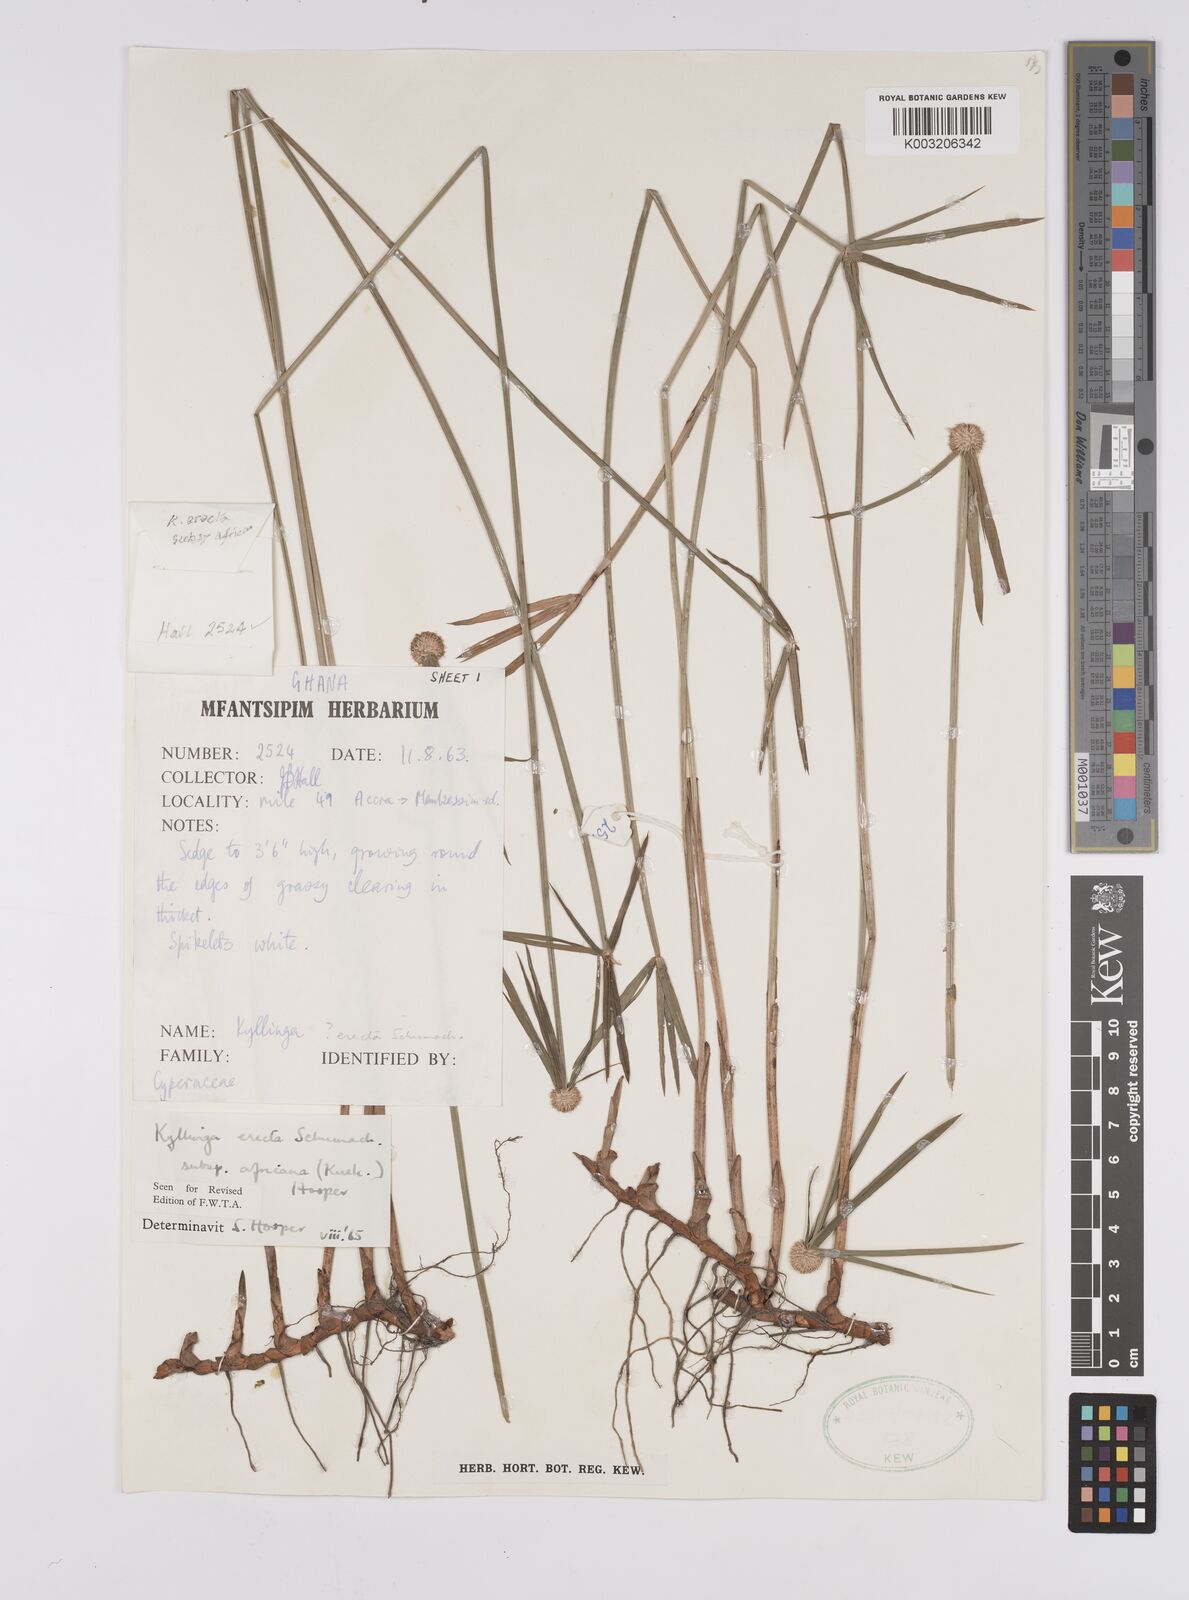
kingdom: Plantae
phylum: Tracheophyta
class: Liliopsida
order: Poales
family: Cyperaceae
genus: Cyperus
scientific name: Cyperus erectus
